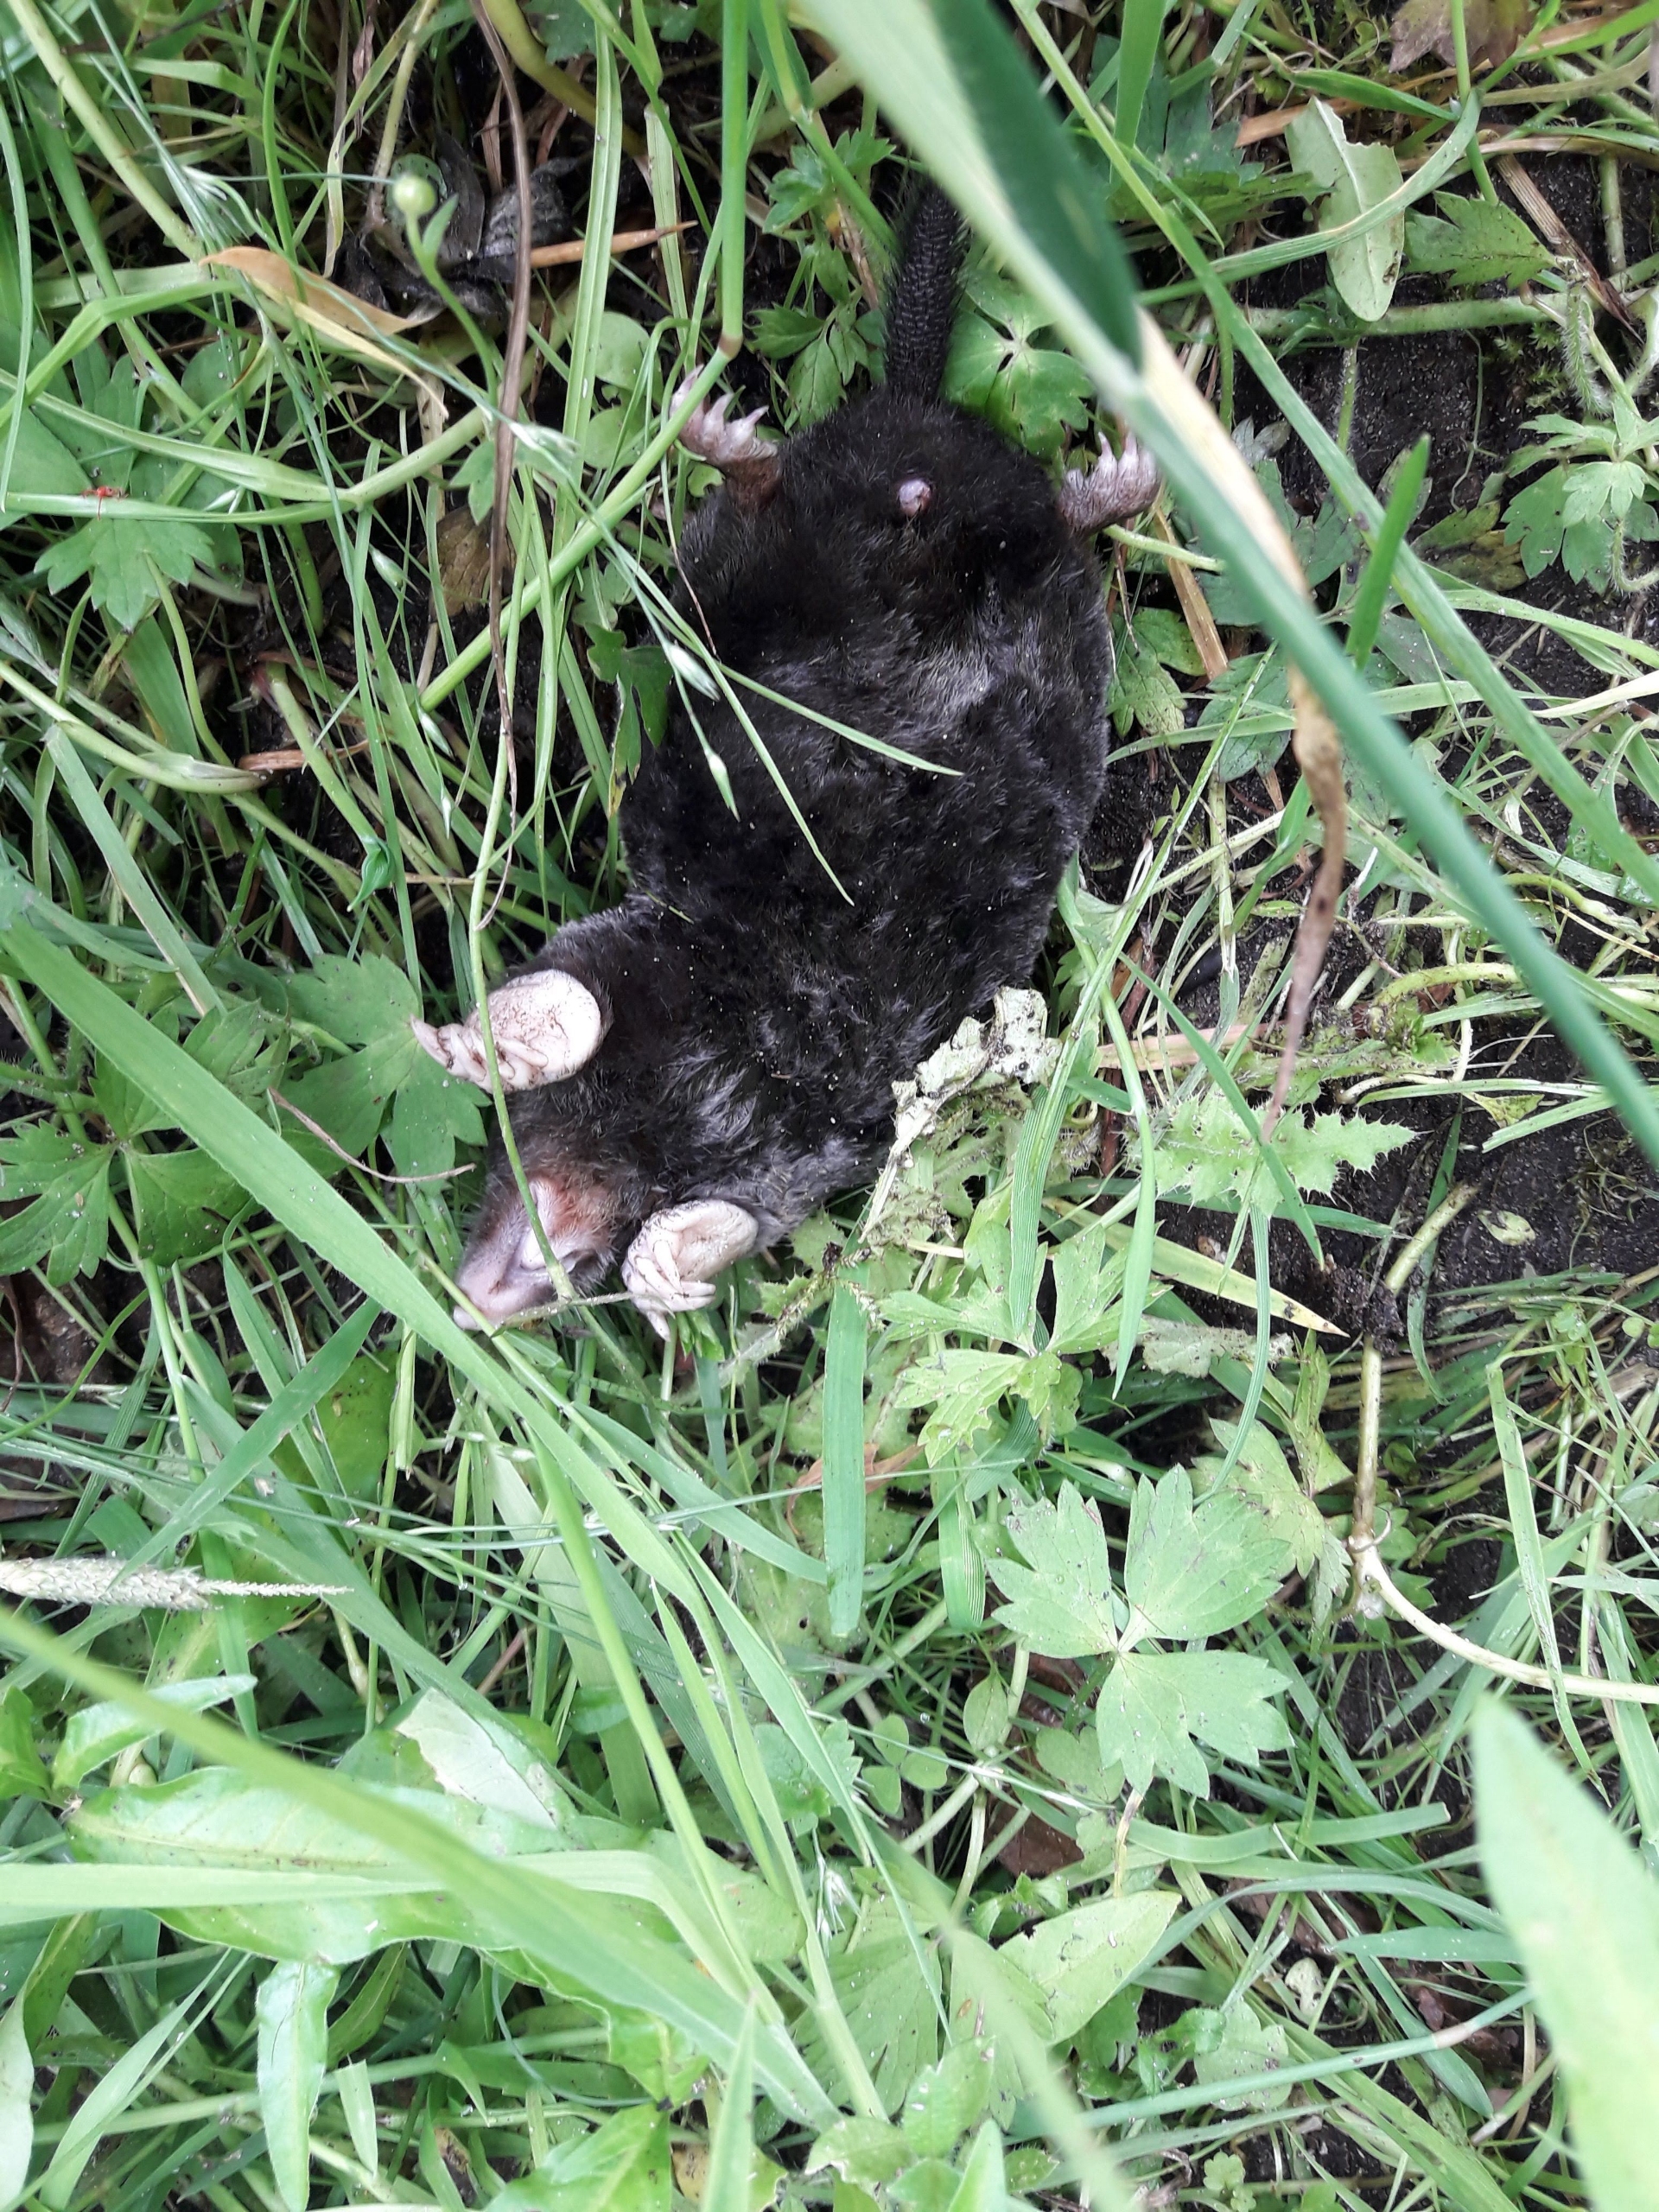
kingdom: Animalia
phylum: Chordata
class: Mammalia
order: Soricomorpha
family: Talpidae
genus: Talpa
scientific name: Talpa europaea
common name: Muldvarp
